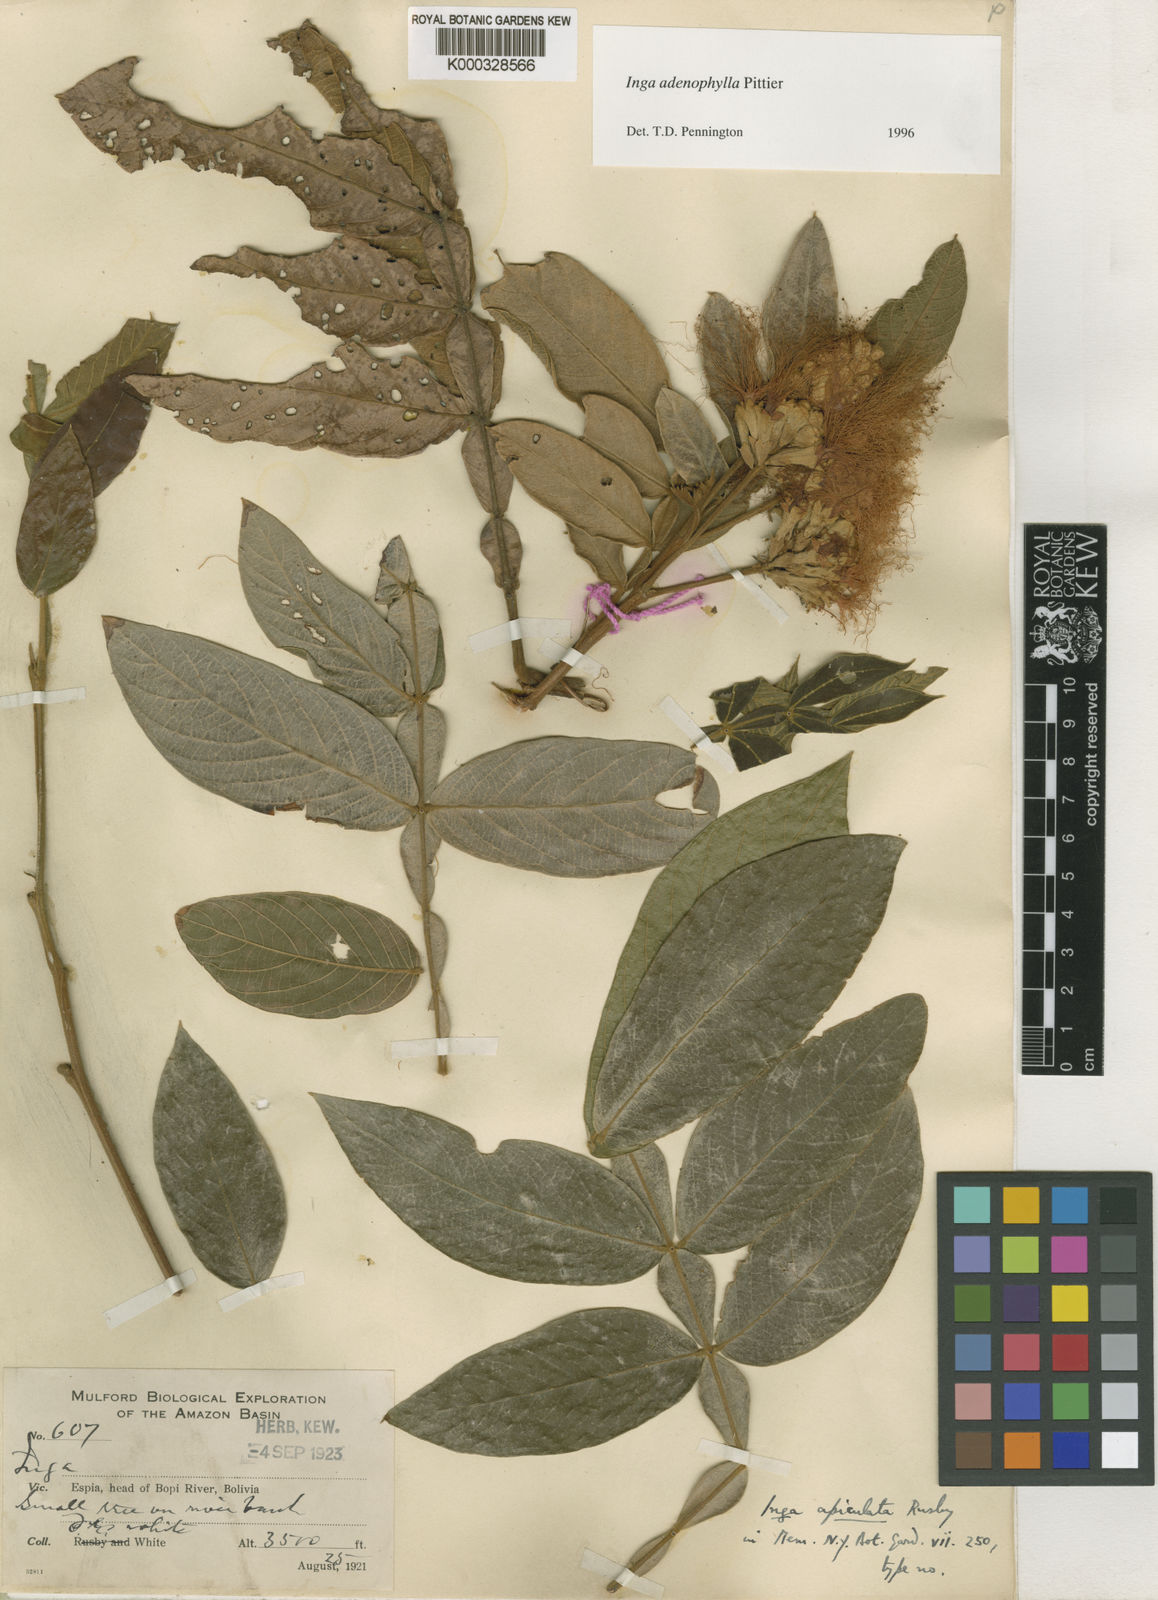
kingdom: Plantae
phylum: Tracheophyta
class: Magnoliopsida
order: Fabales
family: Fabaceae
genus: Inga
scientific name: Inga adenophylla
